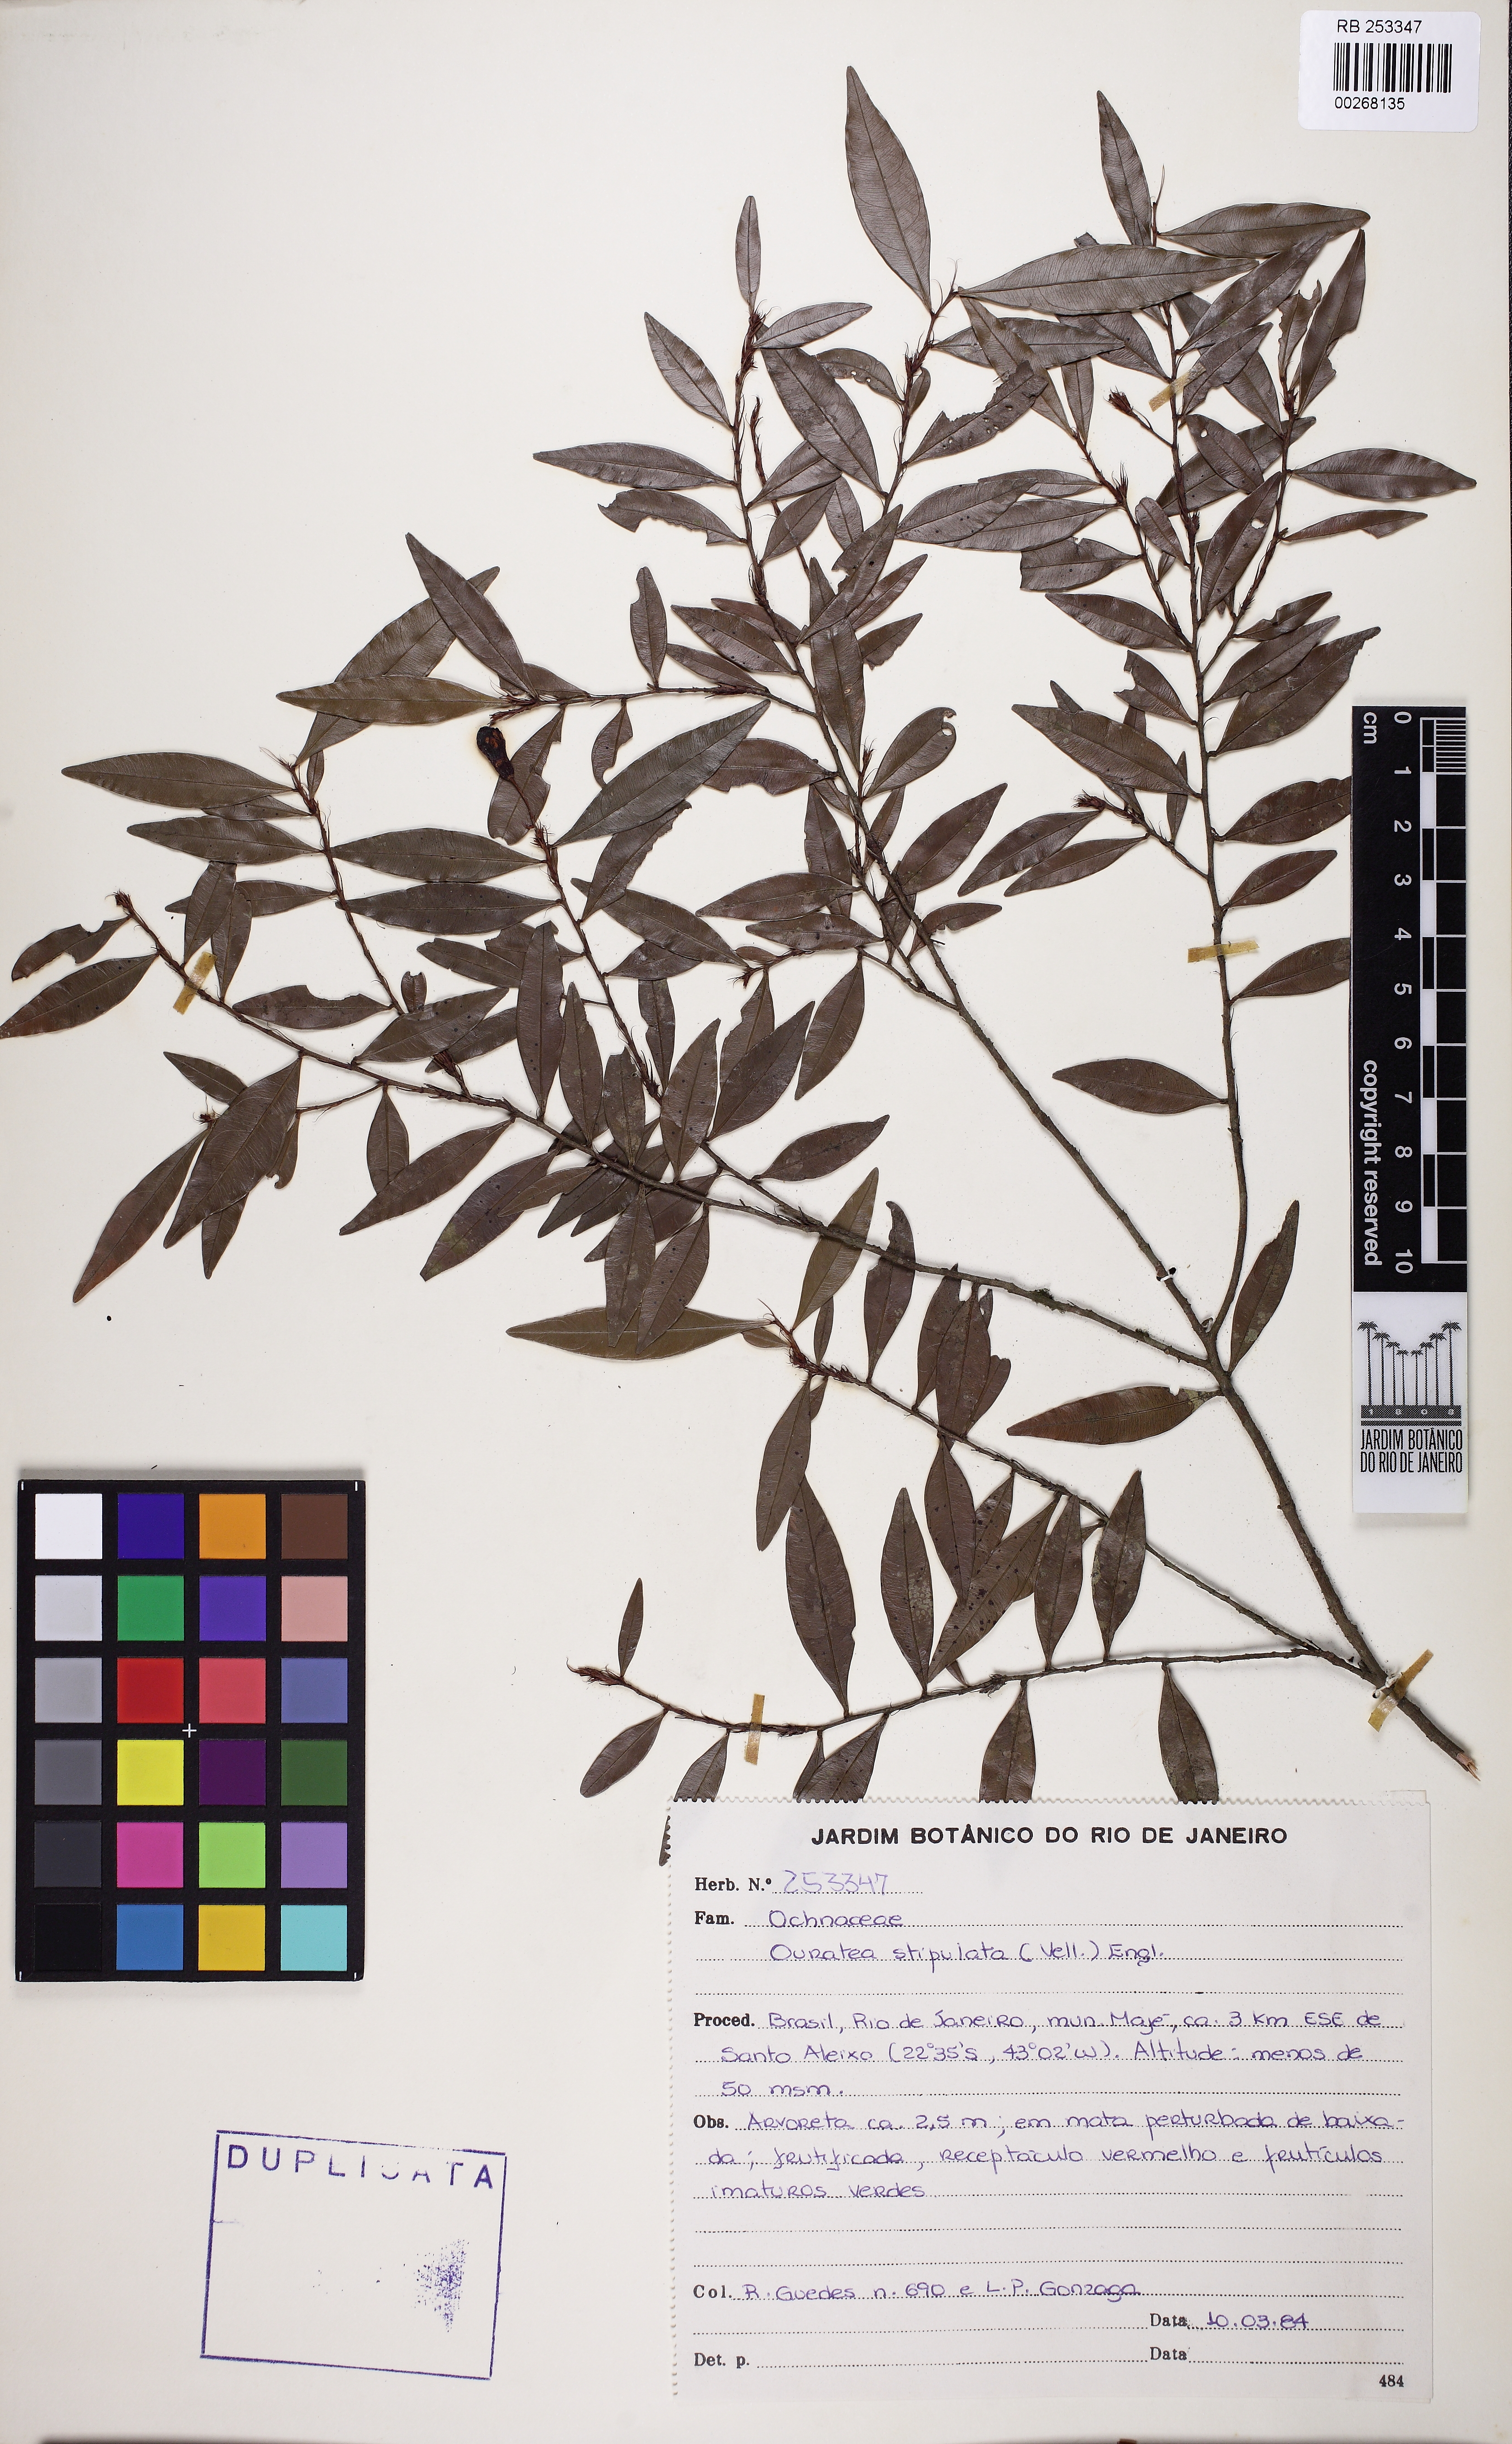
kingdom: Plantae
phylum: Tracheophyta
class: Magnoliopsida
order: Malpighiales
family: Ochnaceae
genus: Ouratea
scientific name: Ouratea stipulata
